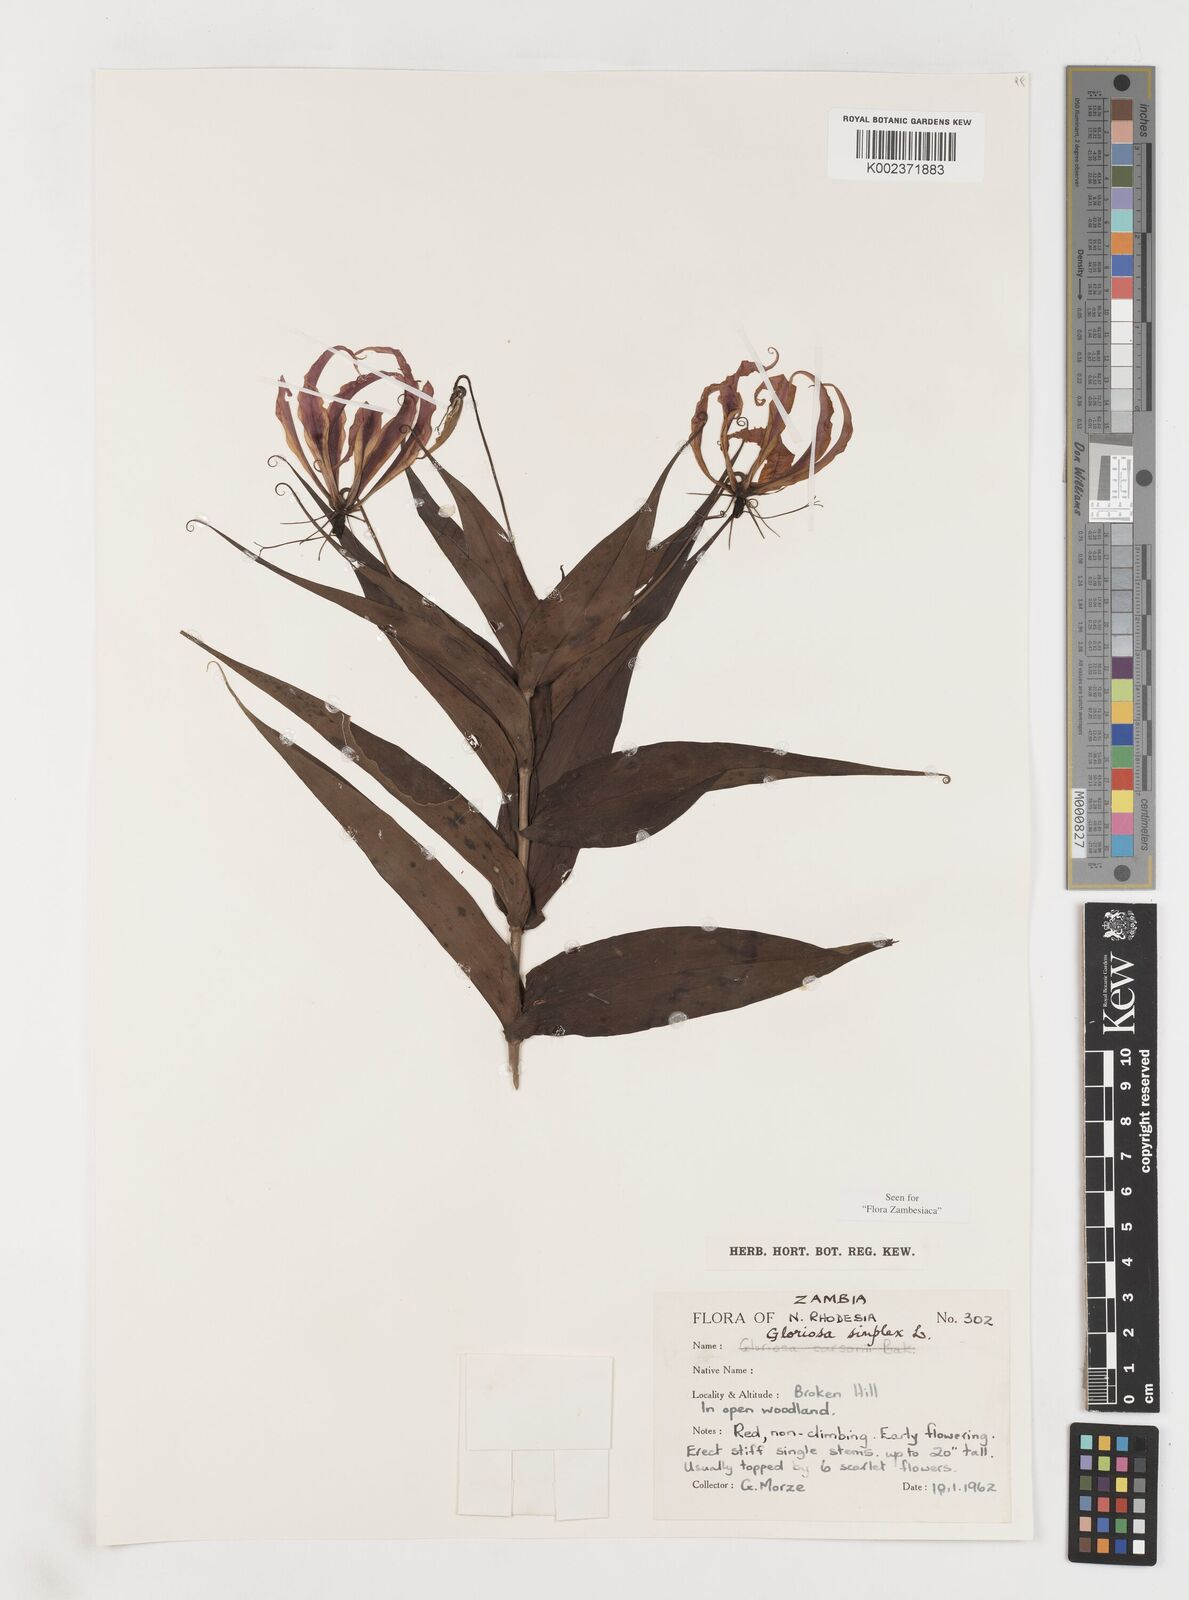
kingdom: Plantae
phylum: Tracheophyta
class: Liliopsida
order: Liliales
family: Colchicaceae
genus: Gloriosa
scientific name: Gloriosa simplex
